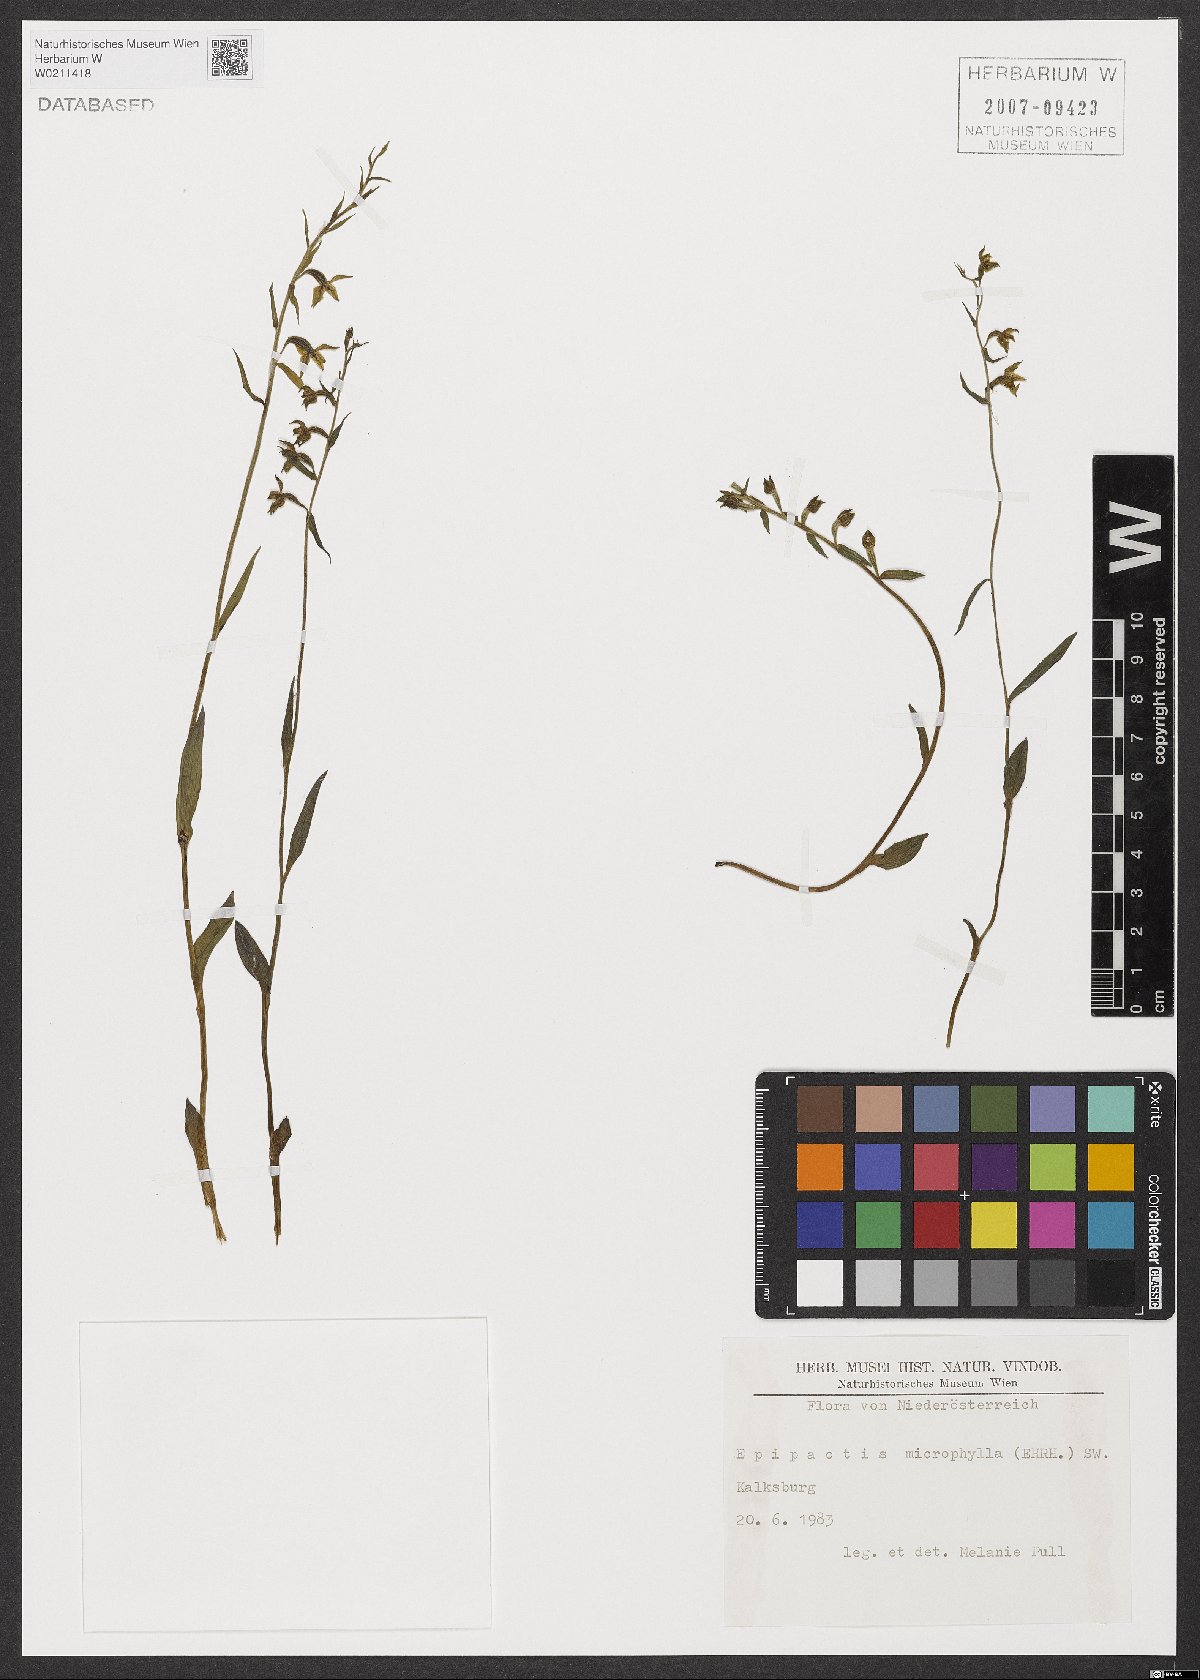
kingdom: Plantae
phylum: Tracheophyta
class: Liliopsida
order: Asparagales
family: Orchidaceae
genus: Epipactis
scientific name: Epipactis microphylla
